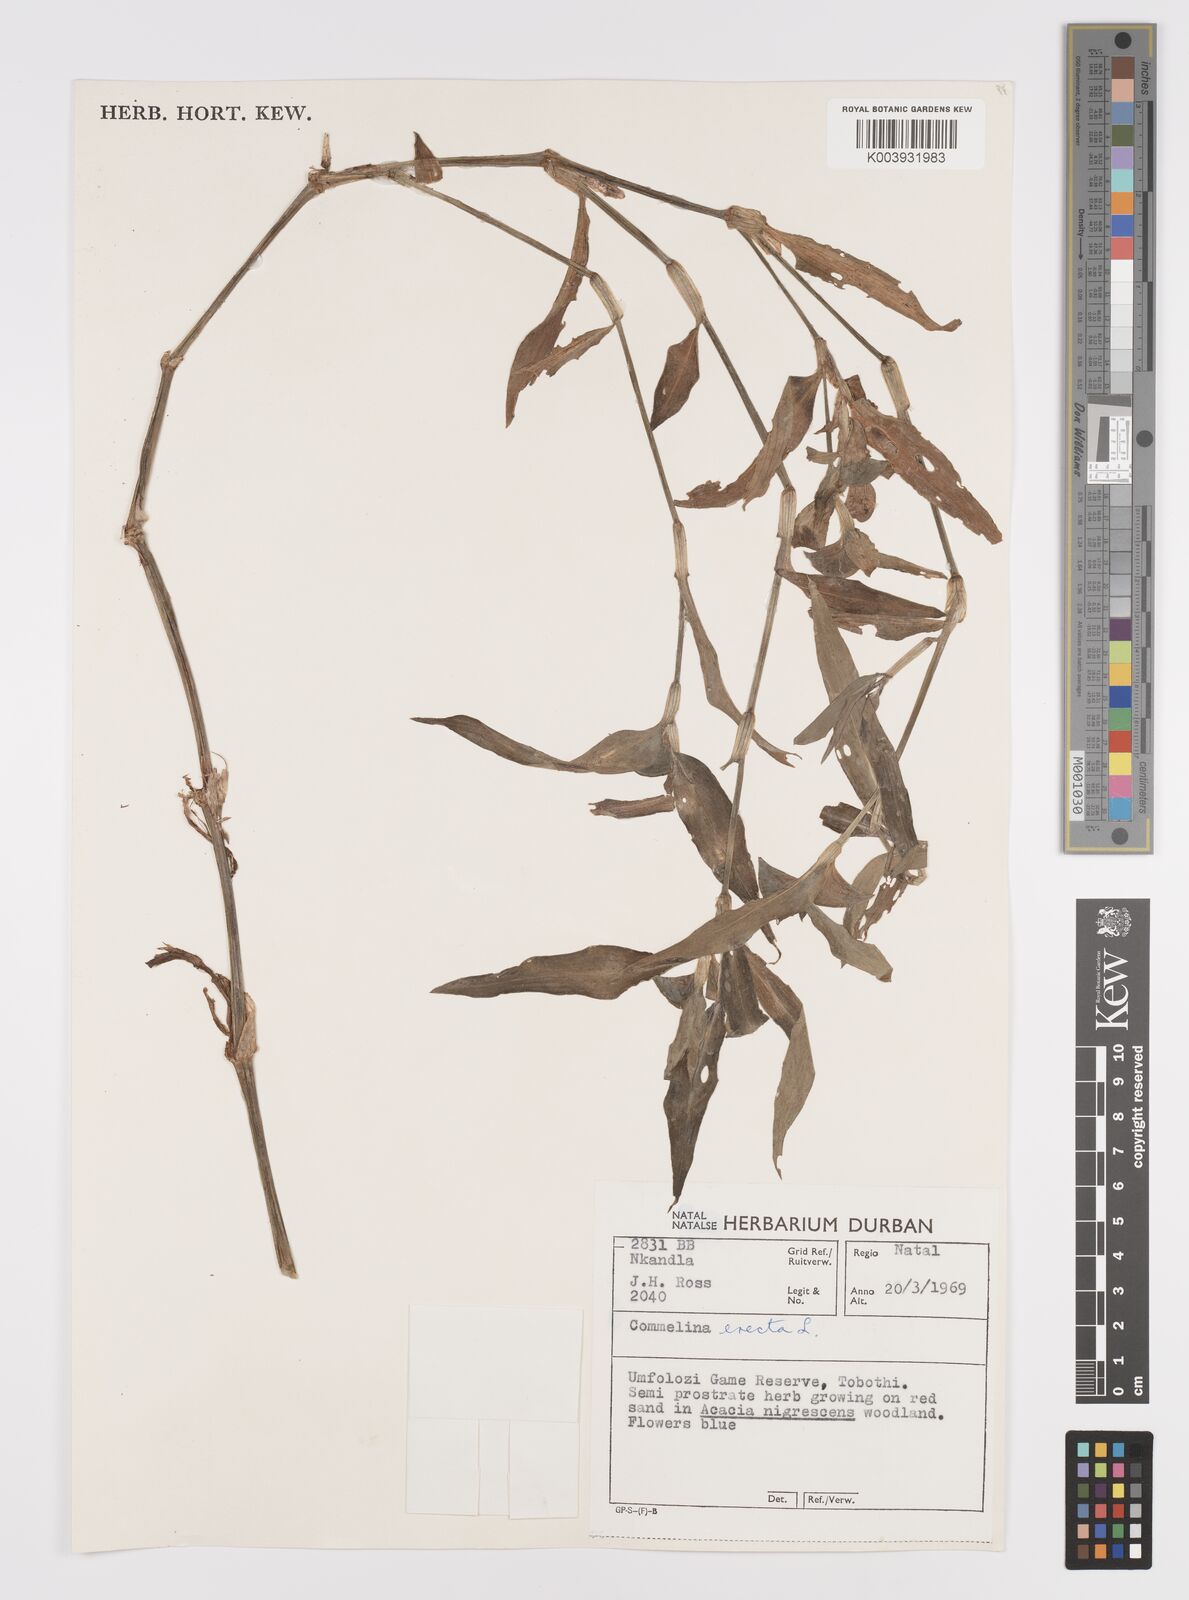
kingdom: Plantae
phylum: Tracheophyta
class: Liliopsida
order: Commelinales
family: Commelinaceae
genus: Commelina
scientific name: Commelina erecta
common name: Blousel blommetjie
